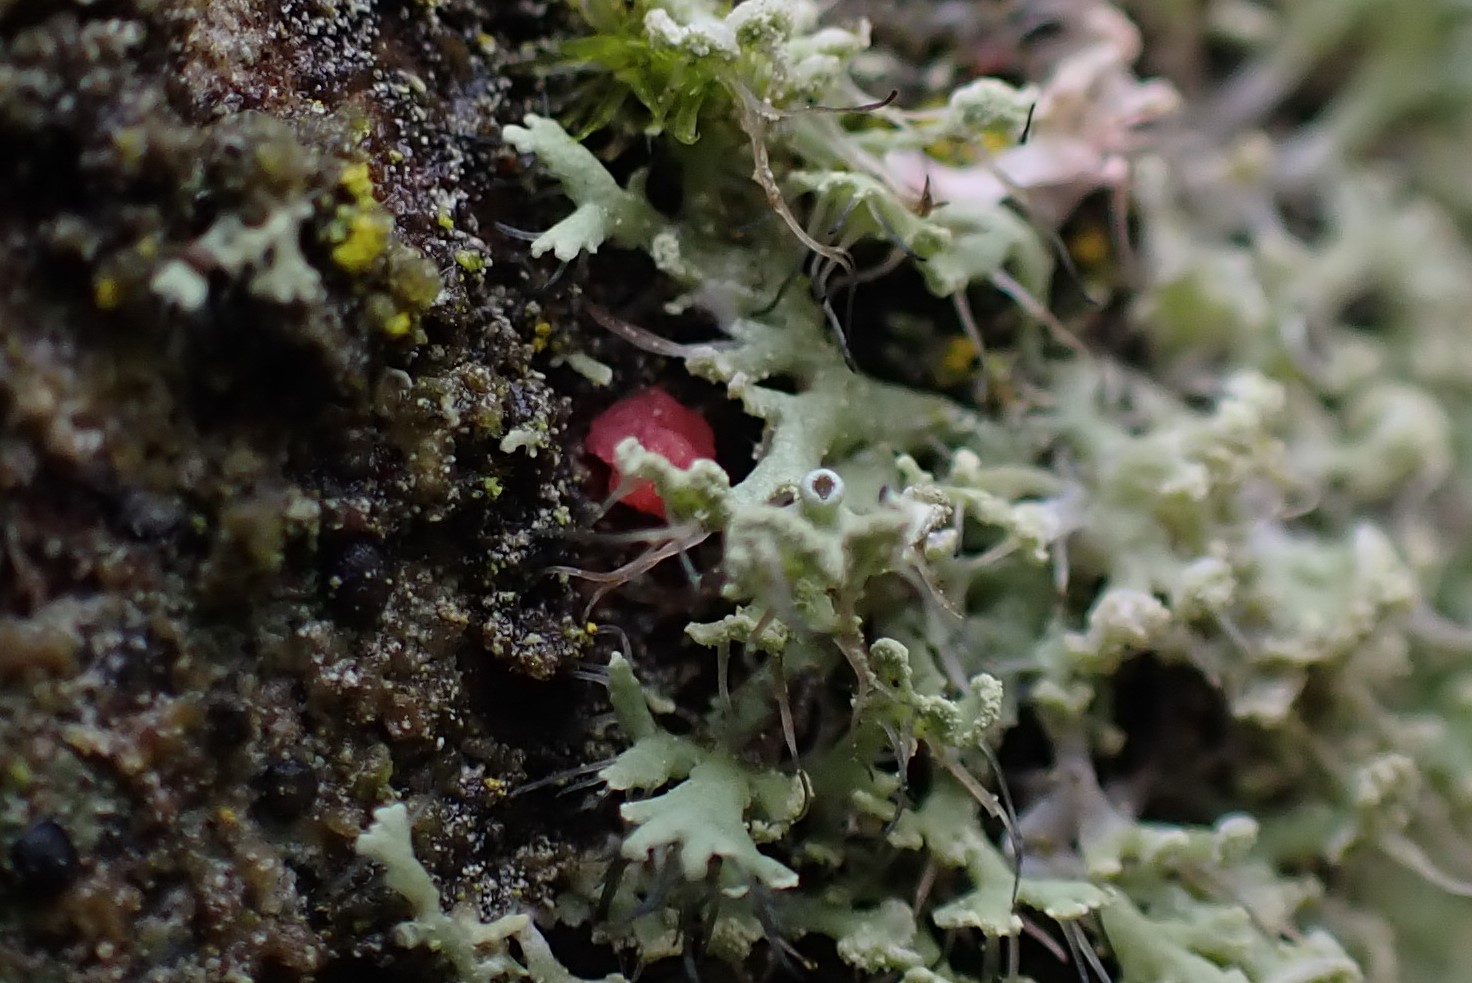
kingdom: Fungi
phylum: Ascomycota
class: Sordariomycetes
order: Hypocreales
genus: Illosporiopsis
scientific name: Illosporiopsis christiansenii
